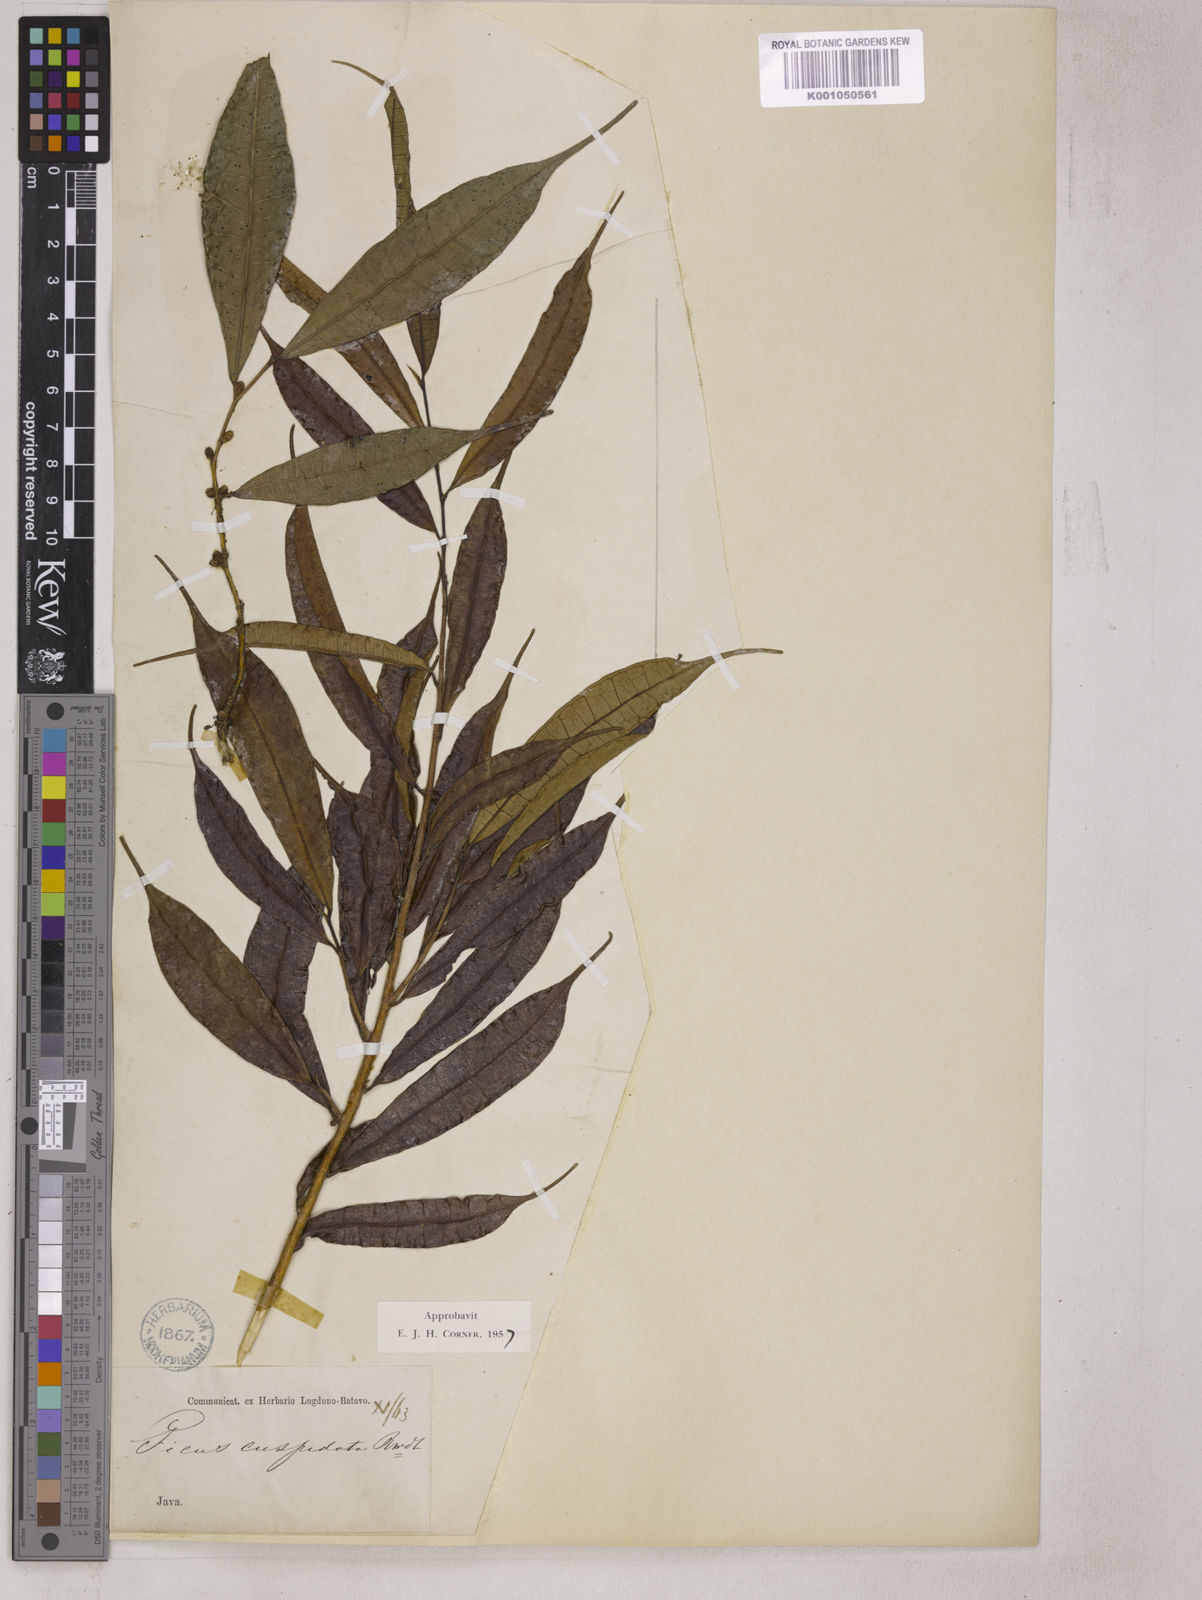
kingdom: Plantae
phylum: Tracheophyta
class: Magnoliopsida
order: Rosales
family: Moraceae
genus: Ficus
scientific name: Ficus sinuata
